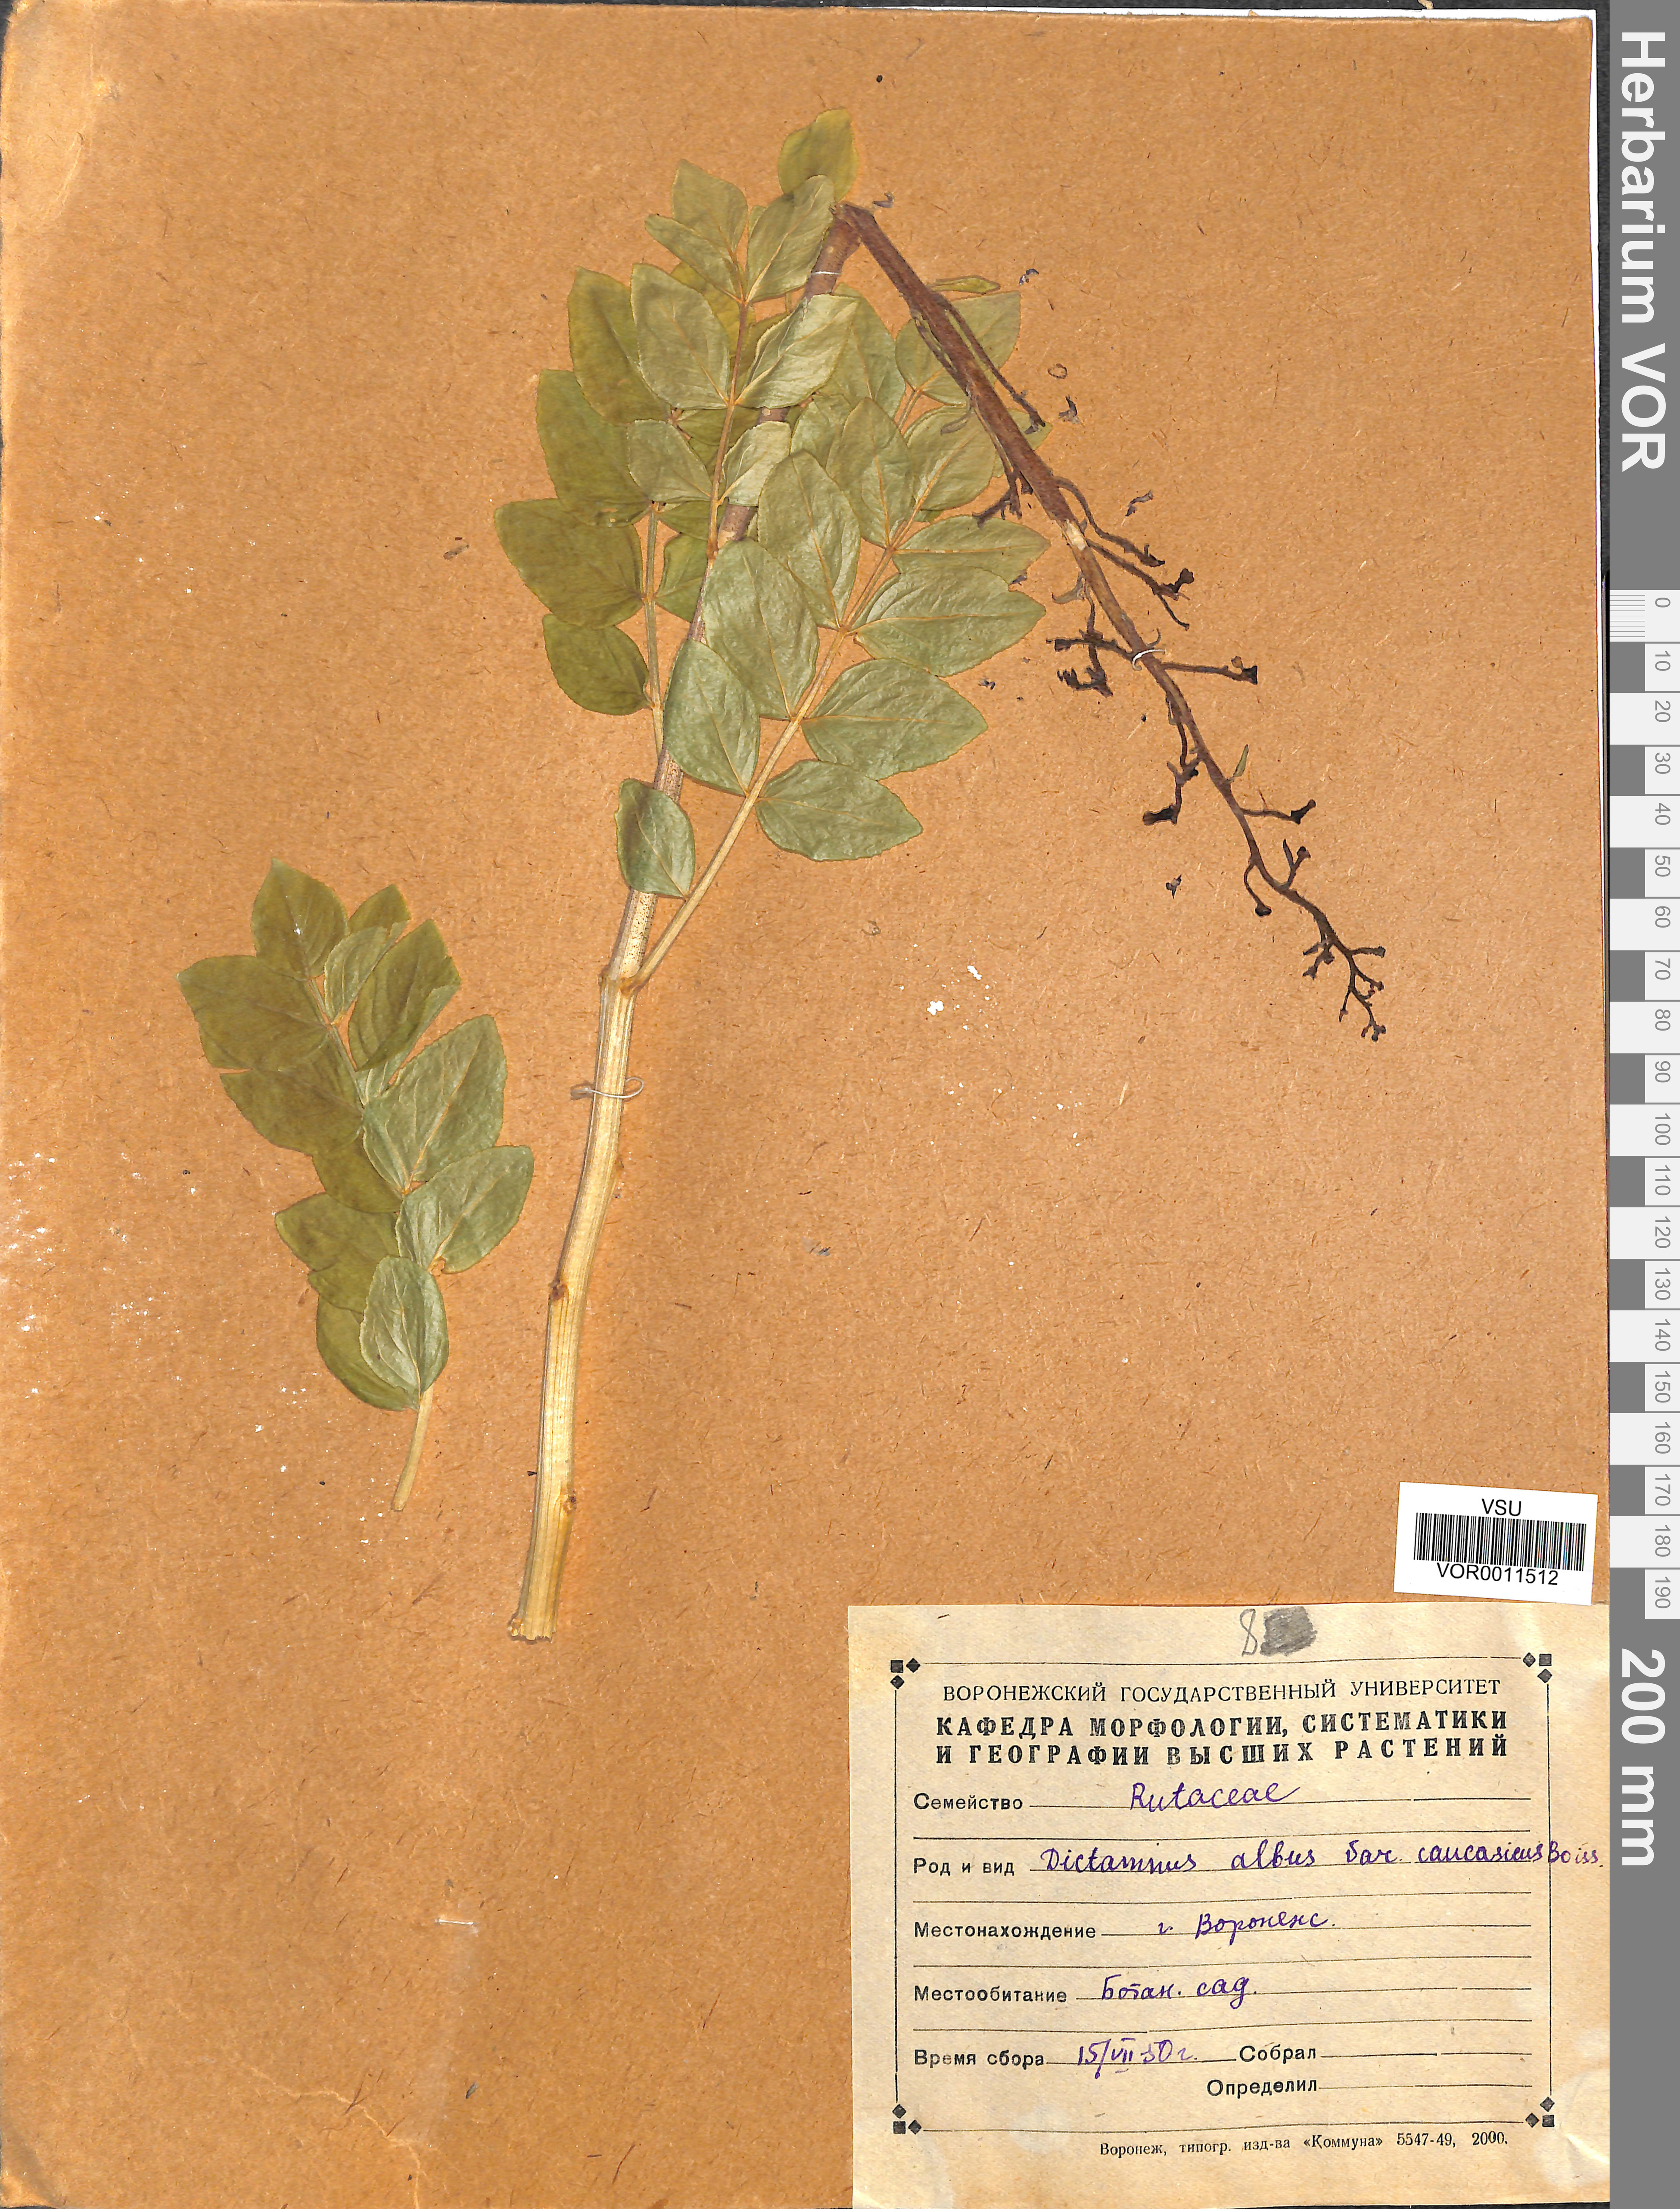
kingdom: Plantae
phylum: Tracheophyta
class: Magnoliopsida
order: Sapindales
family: Rutaceae
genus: Dictamnus
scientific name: Dictamnus albus
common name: Gasplant
